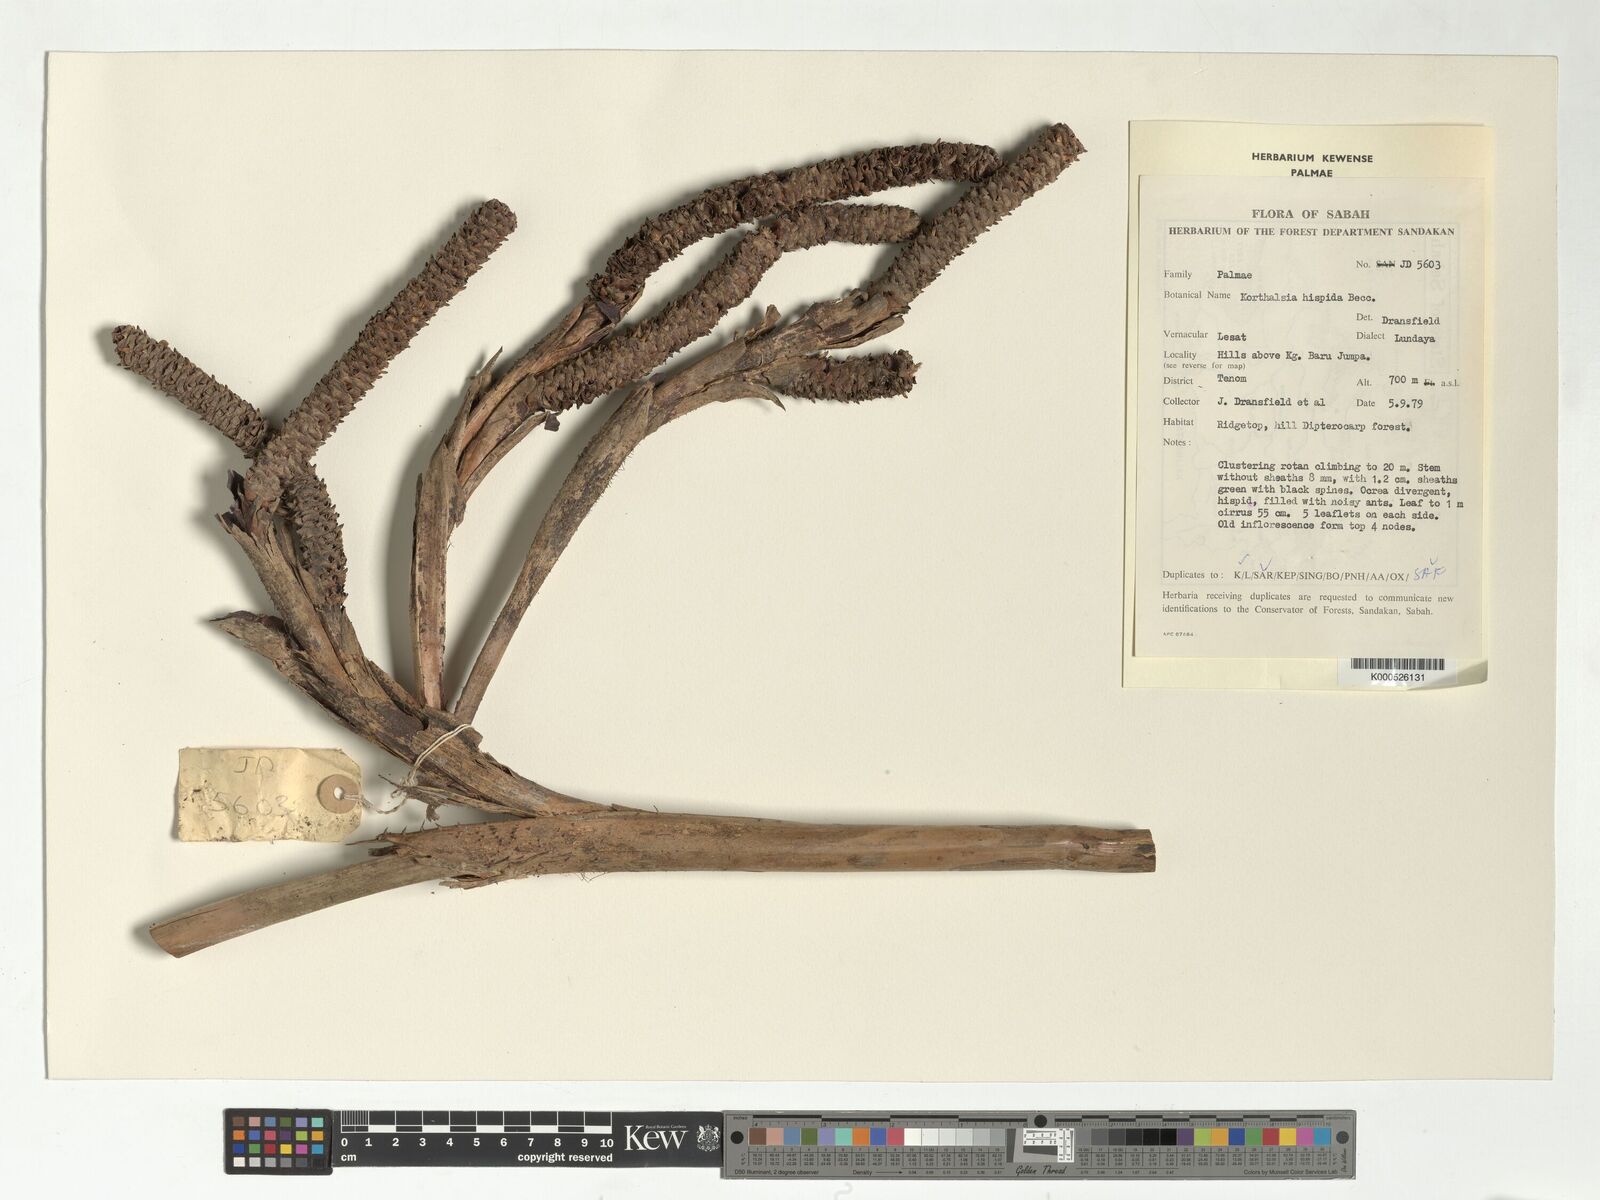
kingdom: Plantae
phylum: Tracheophyta
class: Liliopsida
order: Arecales
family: Arecaceae
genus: Korthalsia
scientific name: Korthalsia hispida
